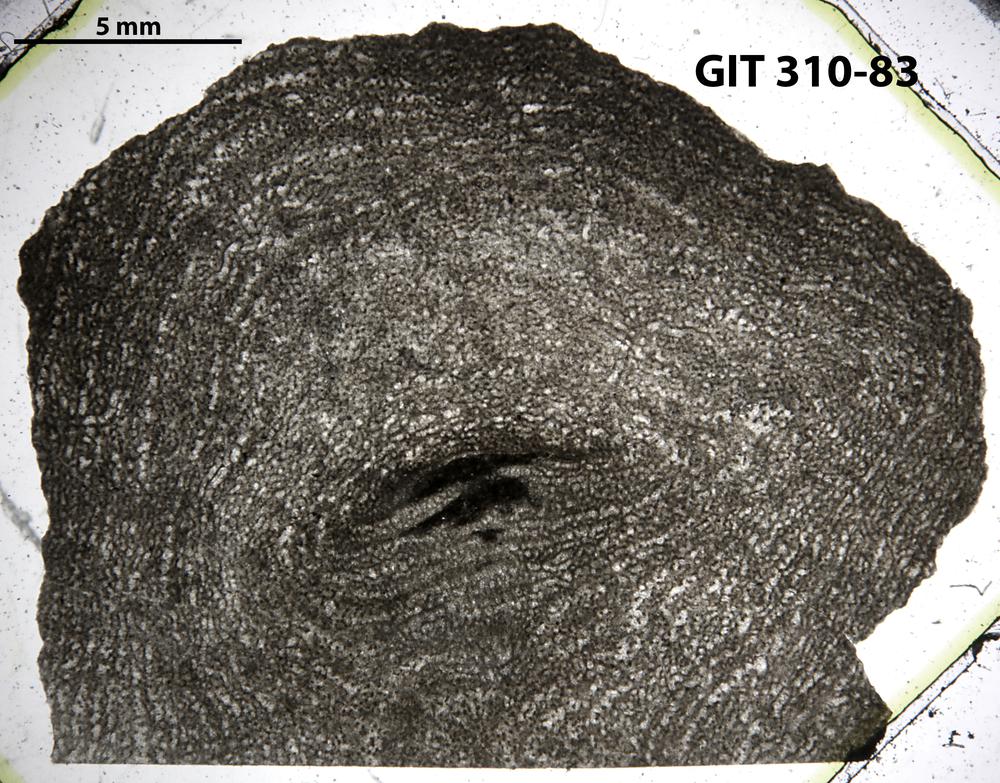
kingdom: Animalia
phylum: Porifera
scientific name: Porifera
